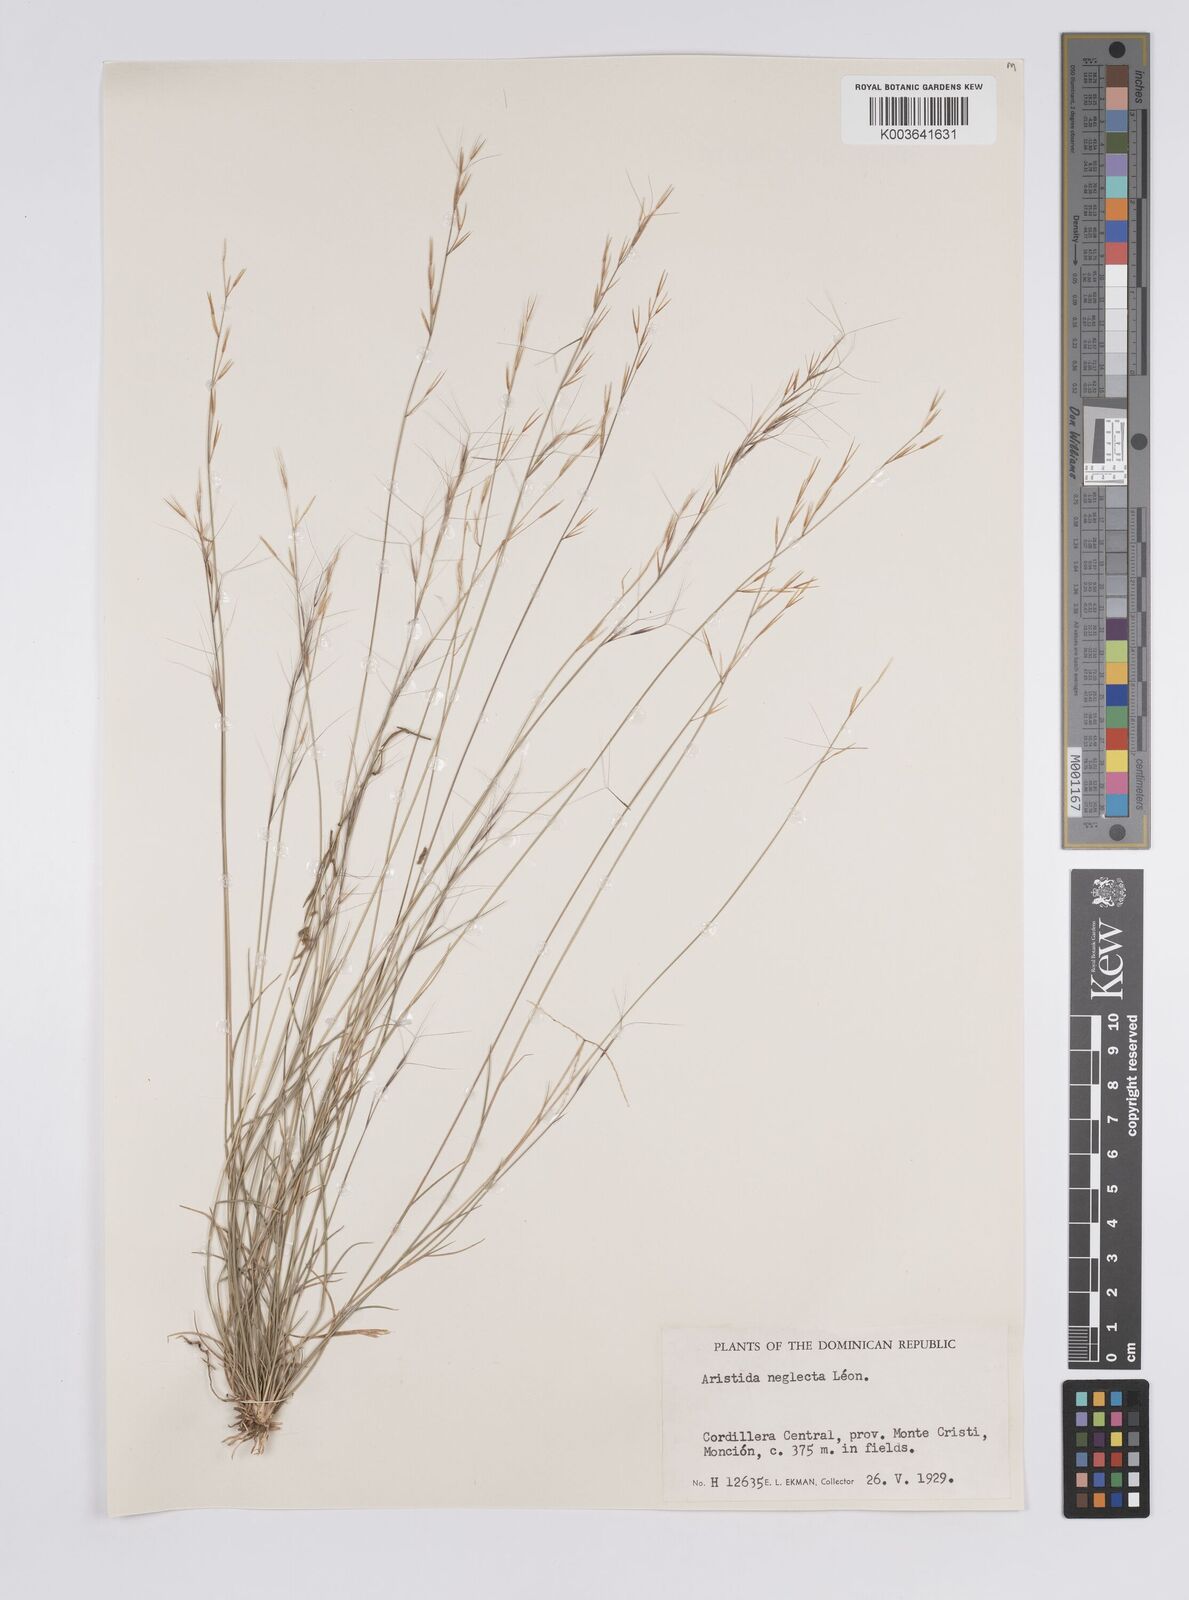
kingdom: Plantae
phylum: Tracheophyta
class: Liliopsida
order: Poales
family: Poaceae
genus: Aristida
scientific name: Aristida neglecta
